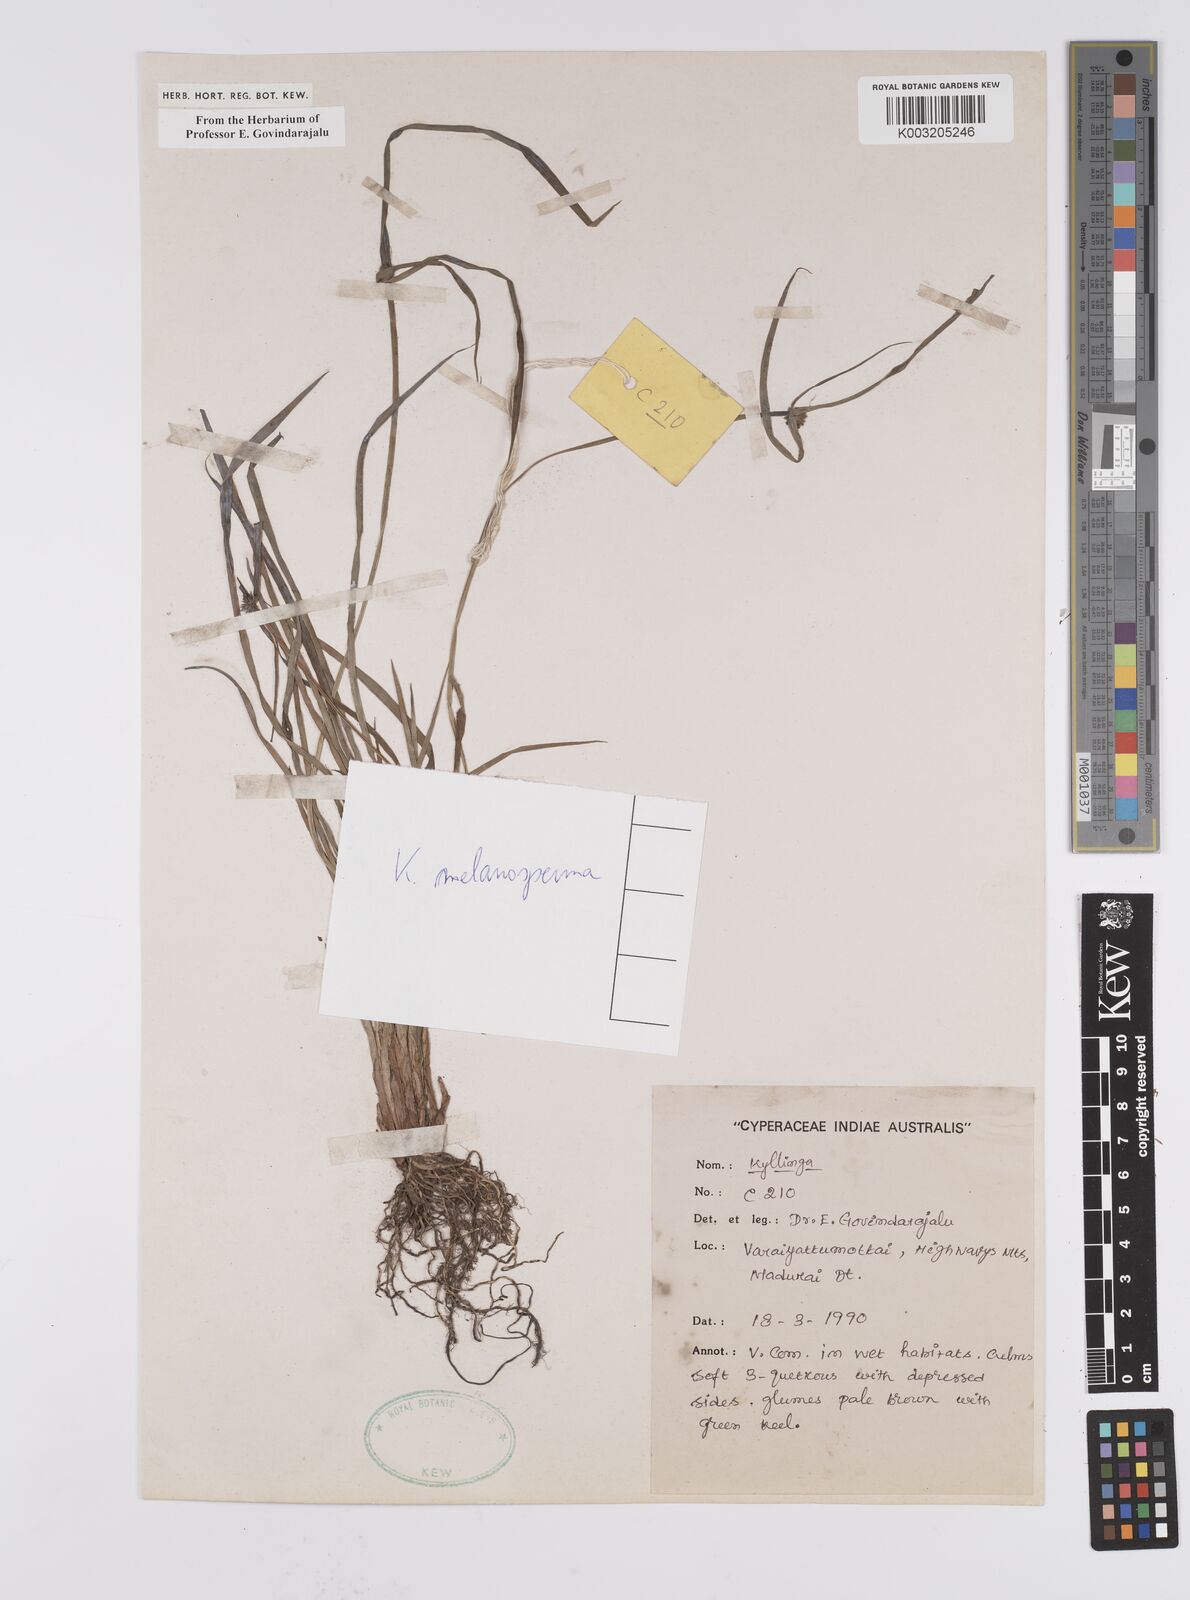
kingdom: Plantae
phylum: Tracheophyta
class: Liliopsida
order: Poales
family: Cyperaceae
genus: Cyperus
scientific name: Cyperus melanospermus
